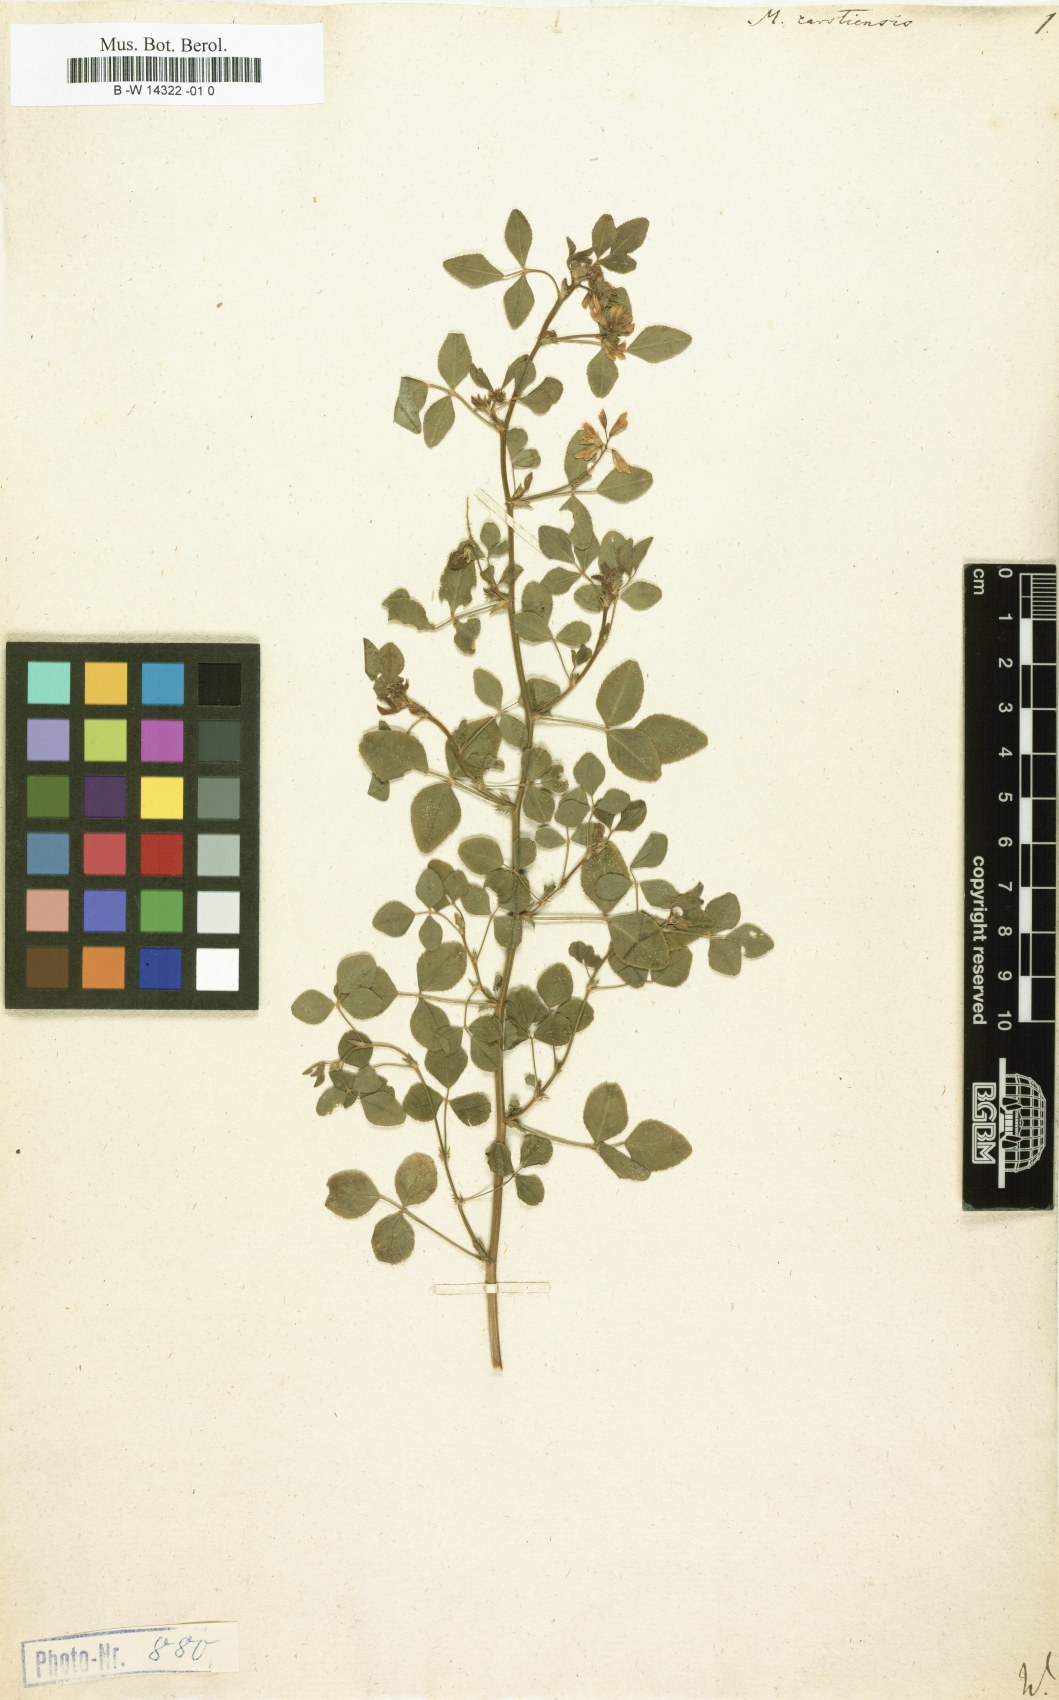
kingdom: Plantae
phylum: Tracheophyta
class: Magnoliopsida
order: Fabales
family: Fabaceae
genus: Medicago
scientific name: Medicago carstiensis
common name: Creeping-rooted medic
